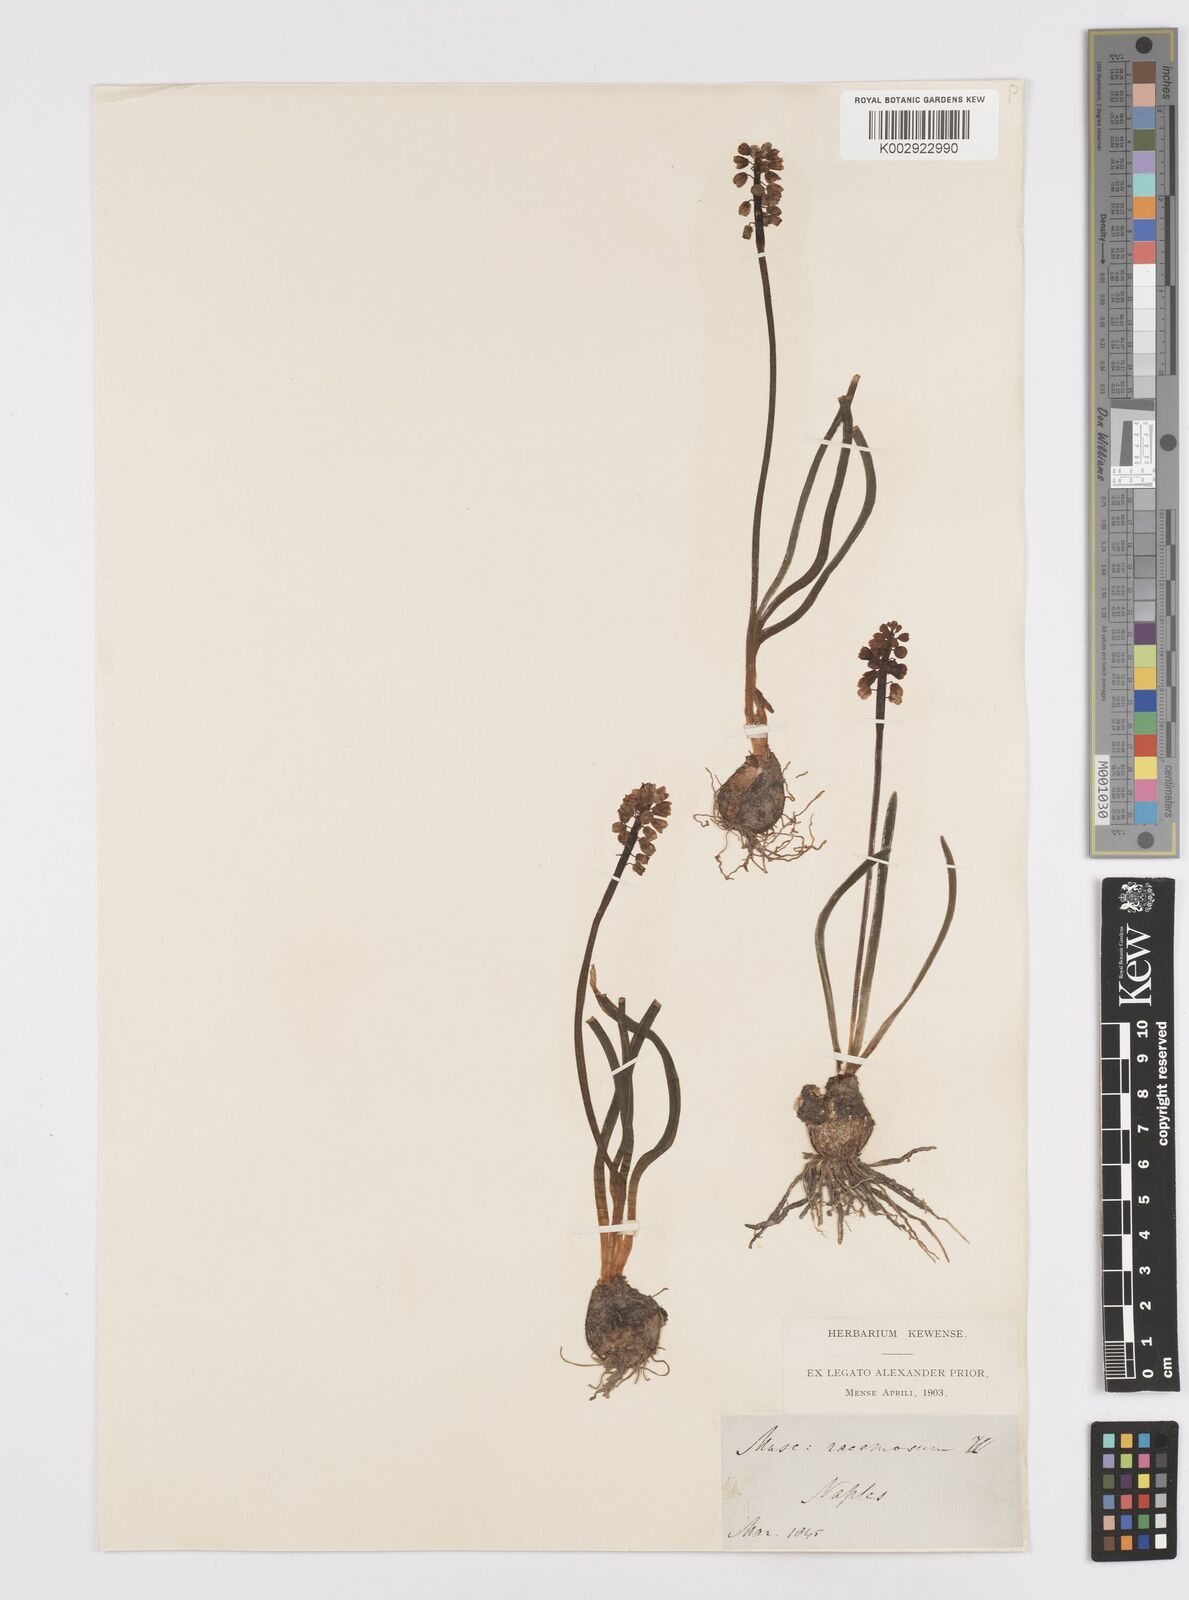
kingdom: Plantae
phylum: Tracheophyta
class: Liliopsida
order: Asparagales
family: Asparagaceae
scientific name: Asparagaceae
